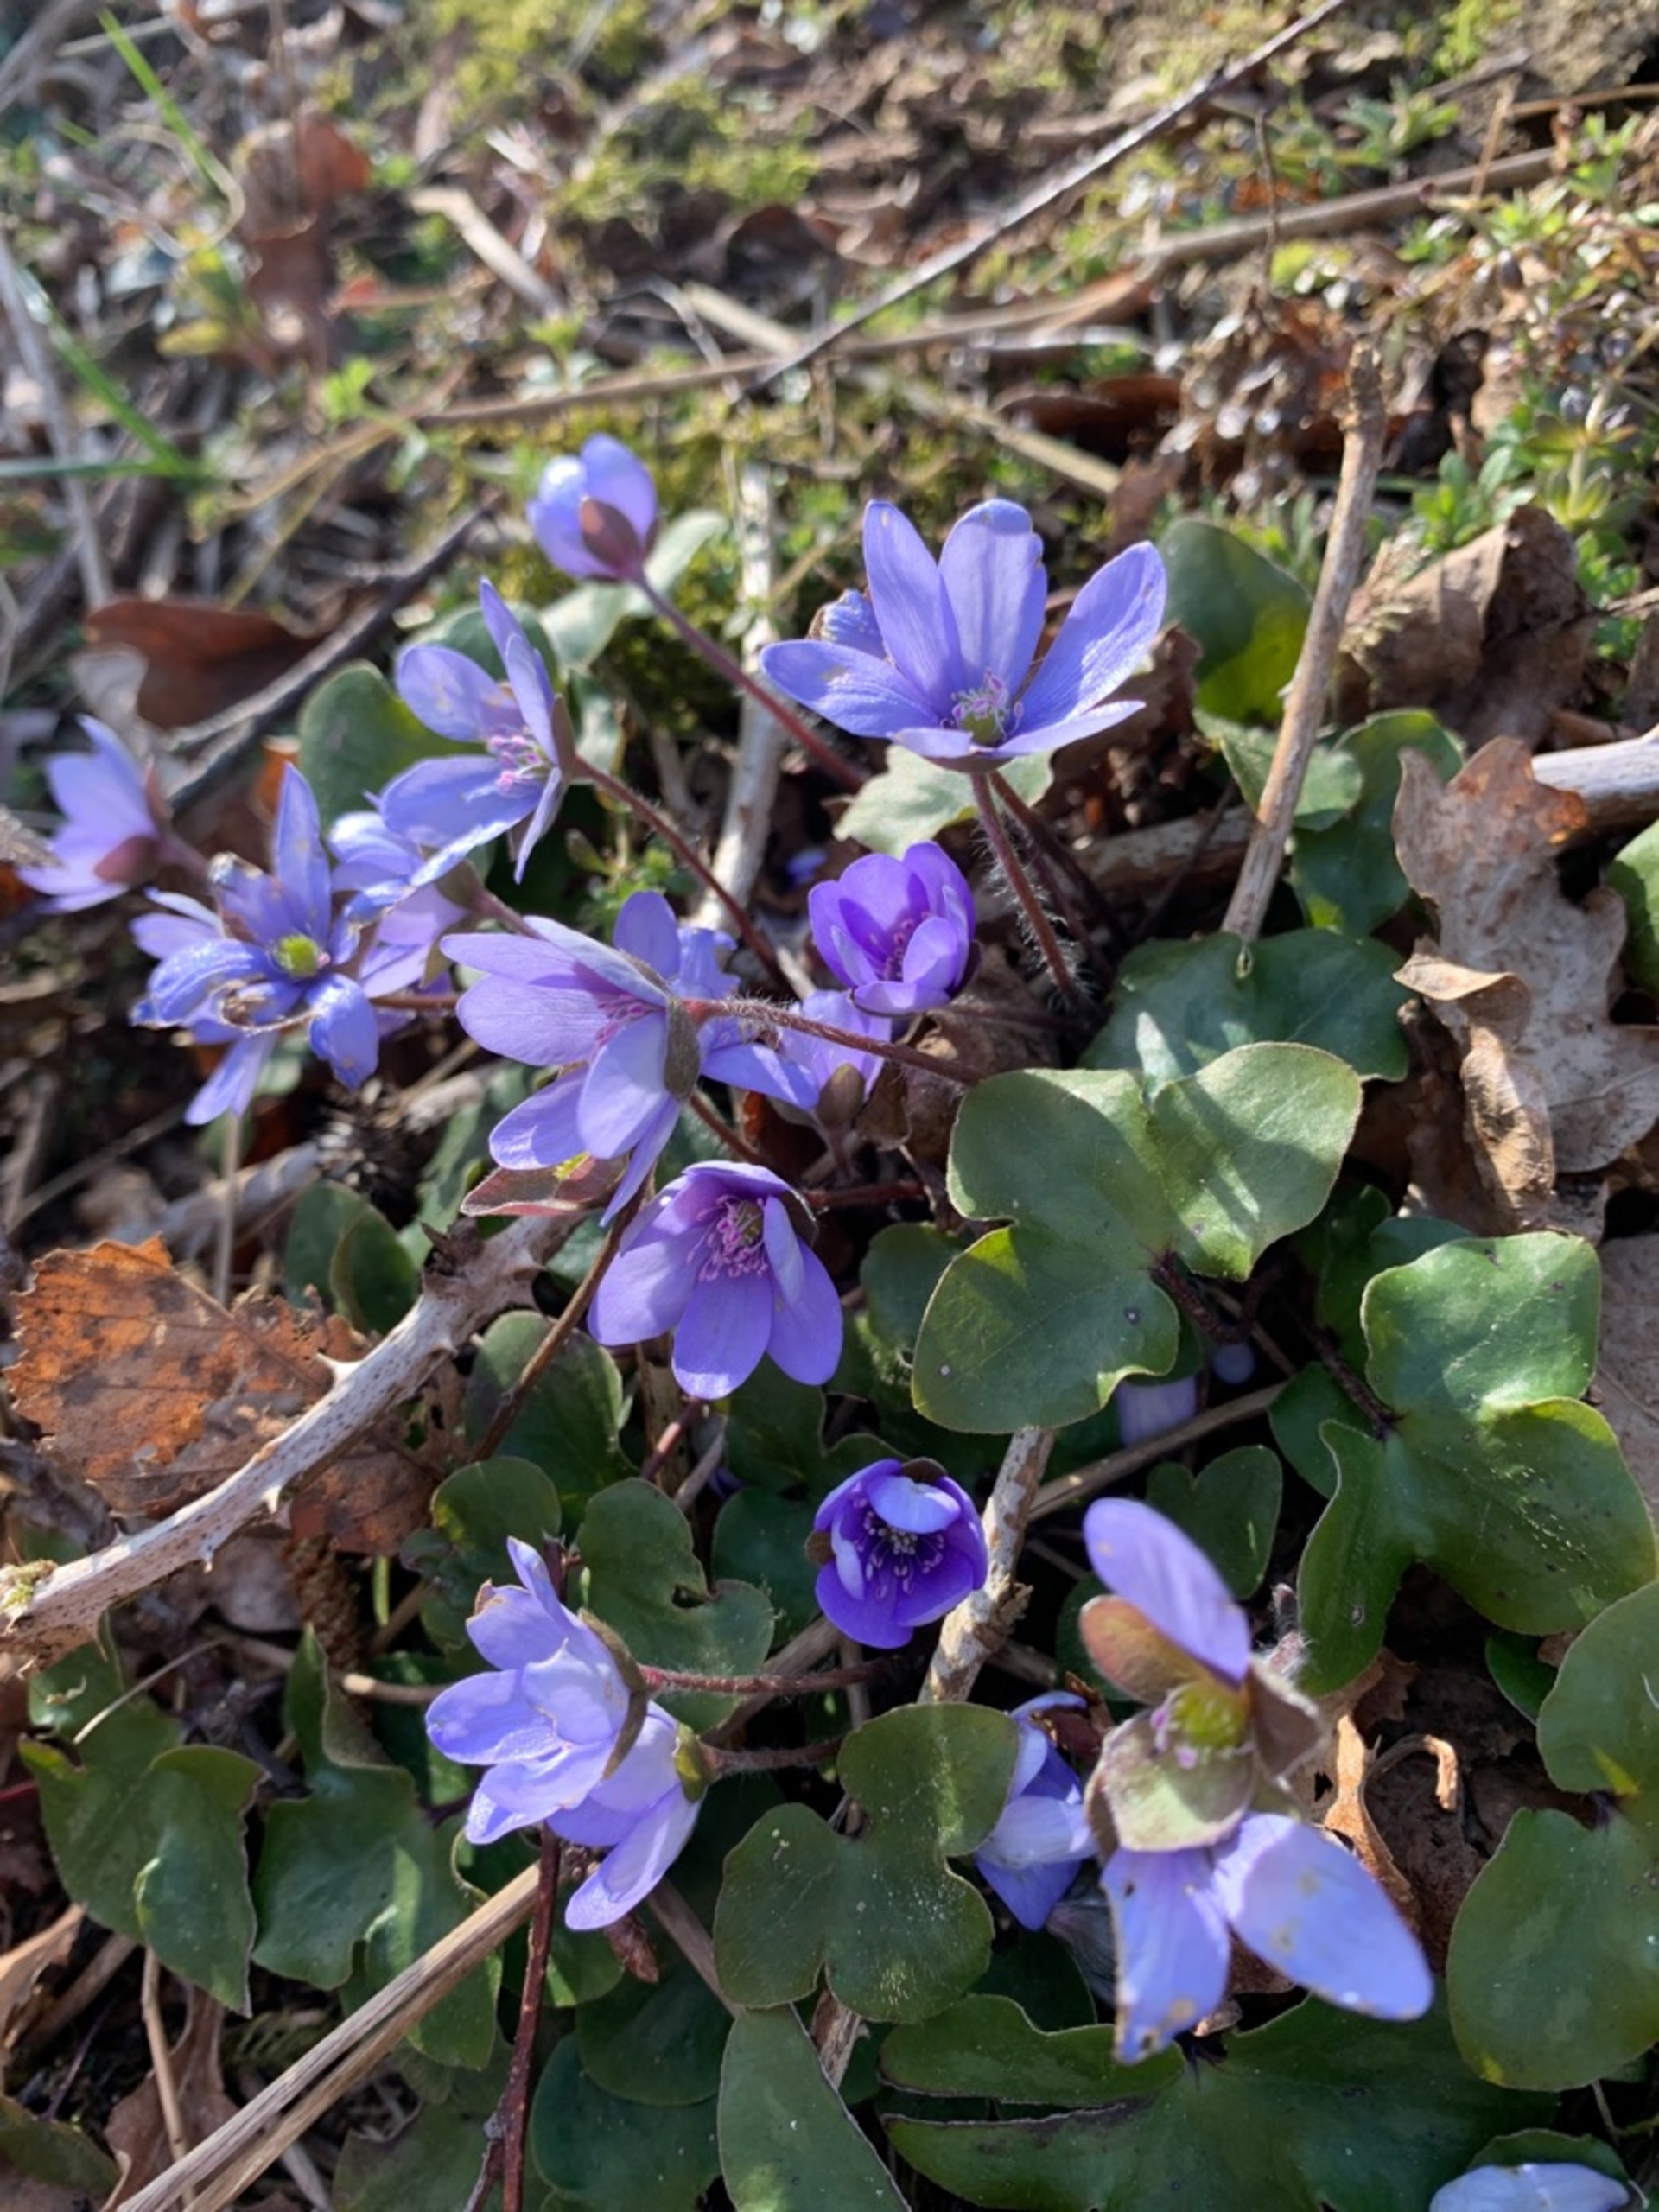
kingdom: Plantae
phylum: Tracheophyta
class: Magnoliopsida
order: Ranunculales
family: Ranunculaceae
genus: Hepatica
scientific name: Hepatica nobilis
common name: Blå anemone
